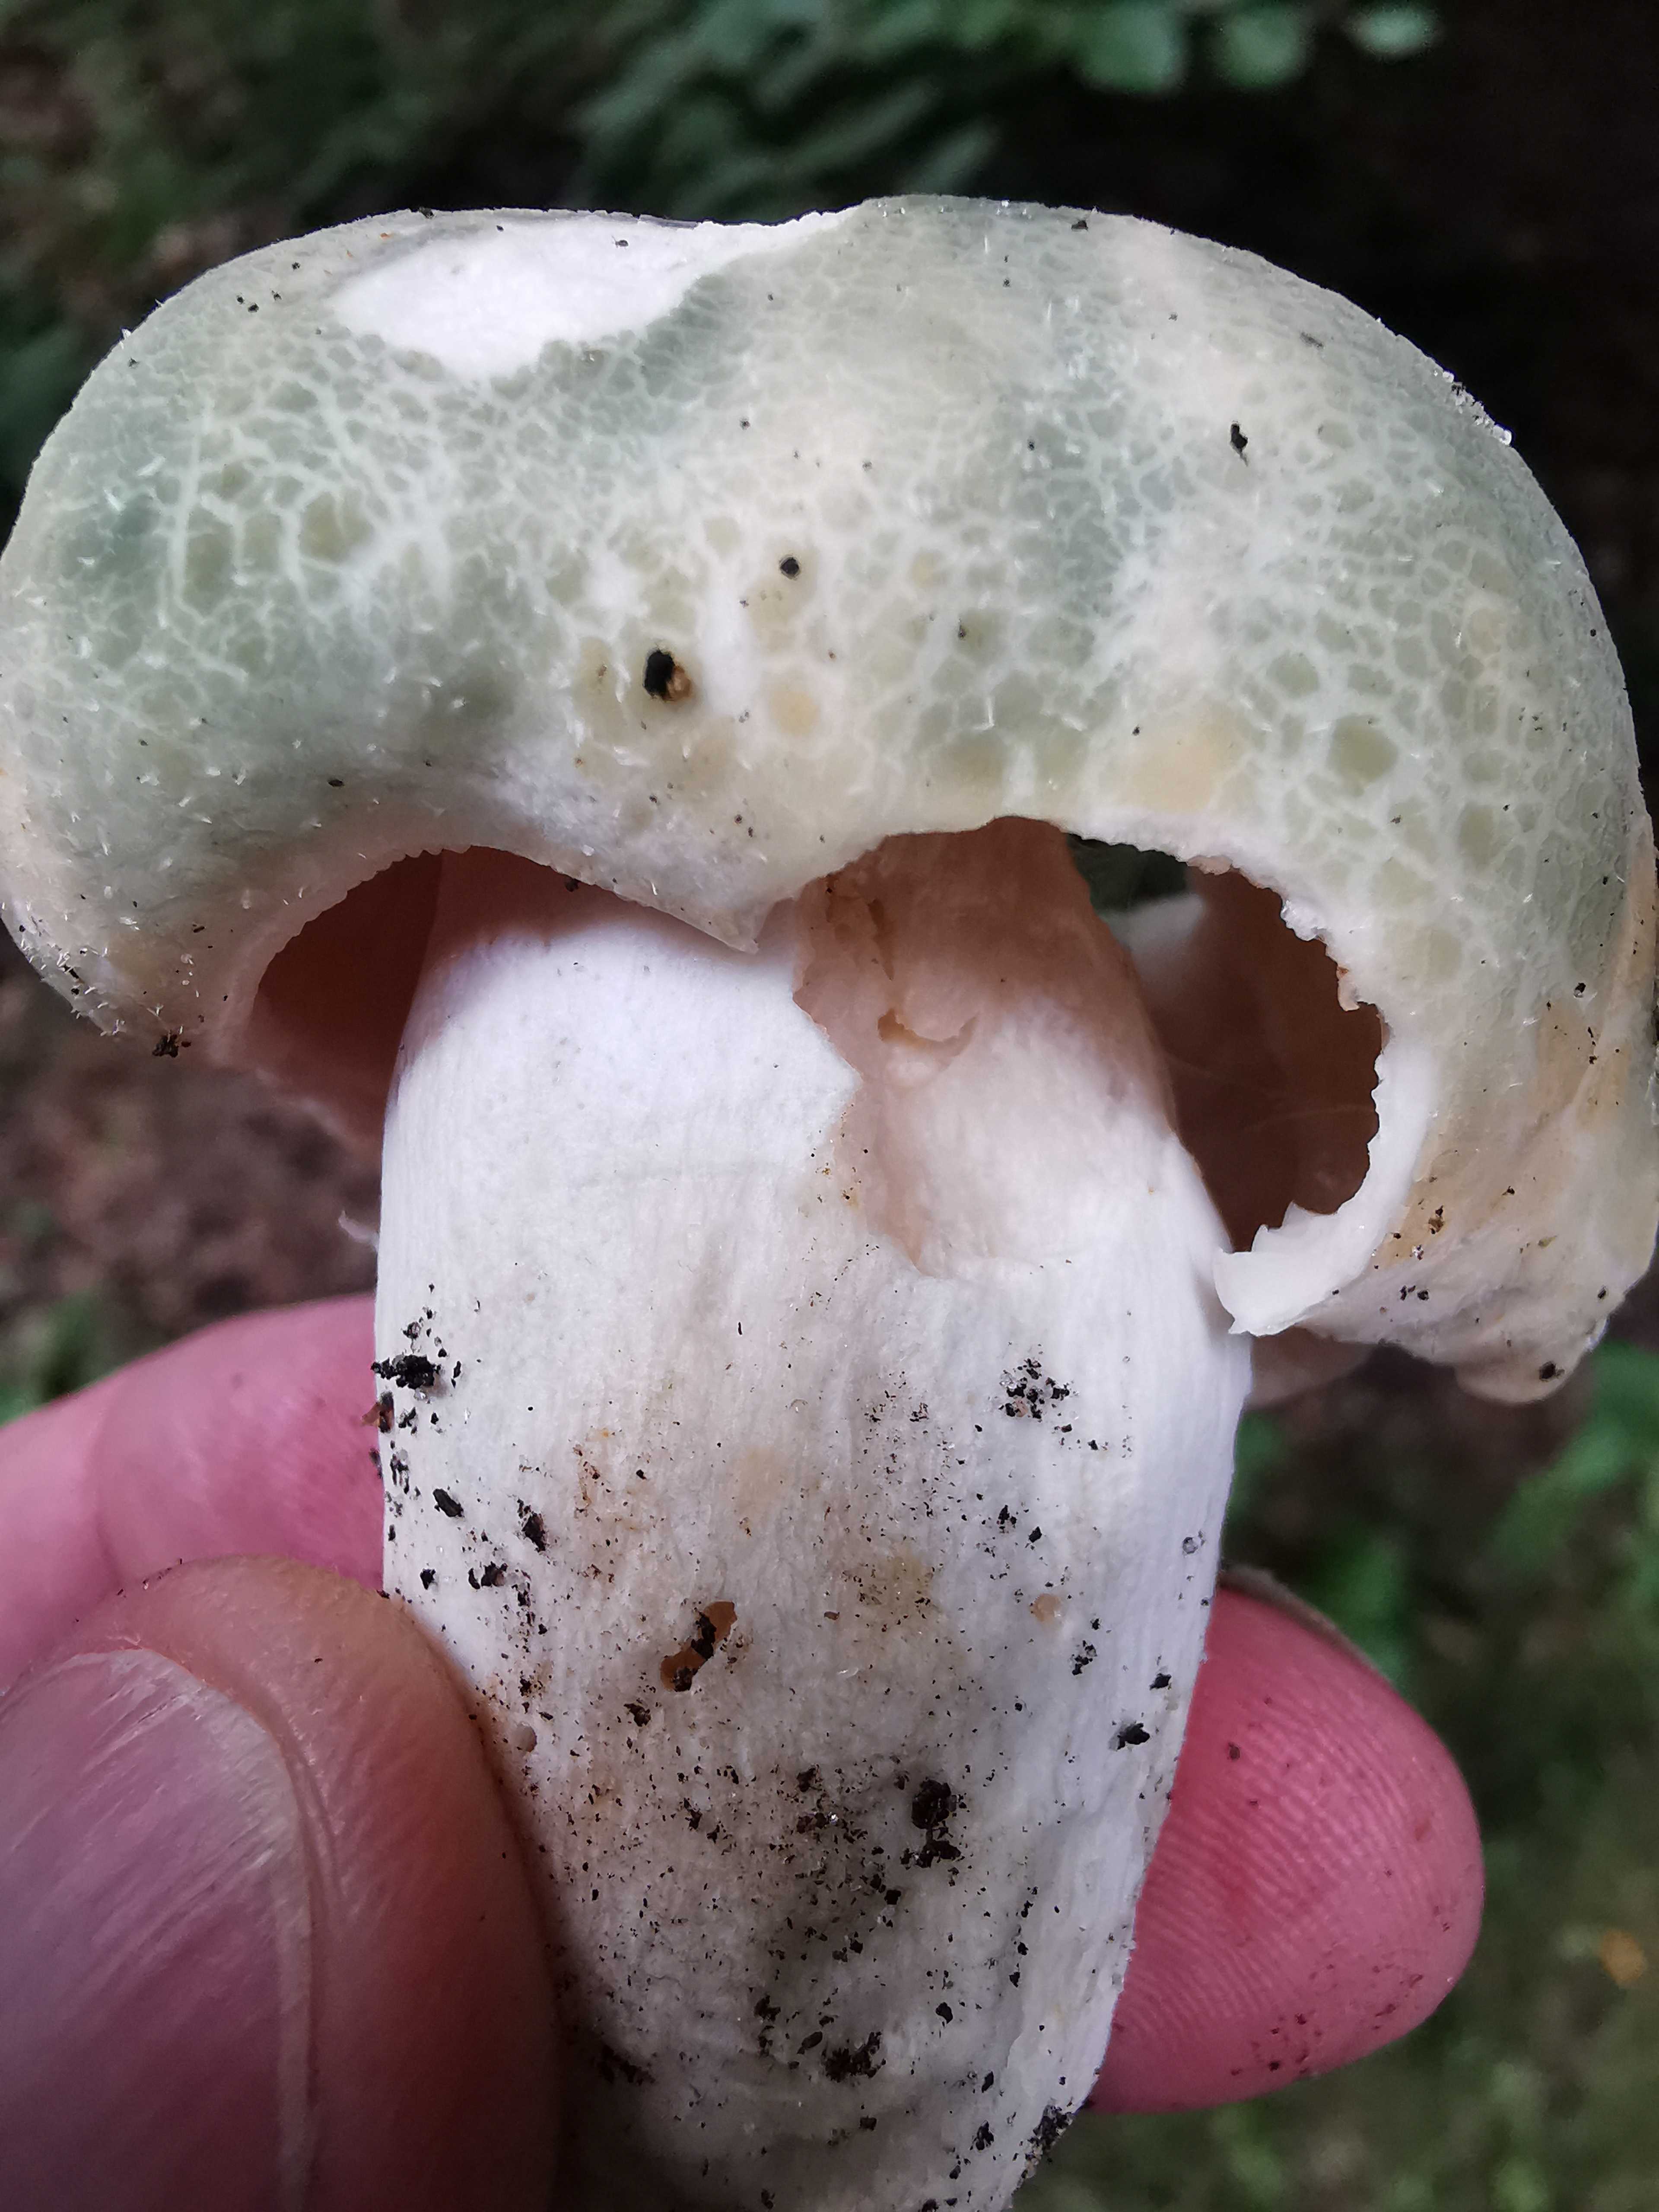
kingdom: Fungi
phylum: Basidiomycota
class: Agaricomycetes
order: Russulales
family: Russulaceae
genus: Russula
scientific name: Russula virescens
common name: spanskgrøn skørhat
